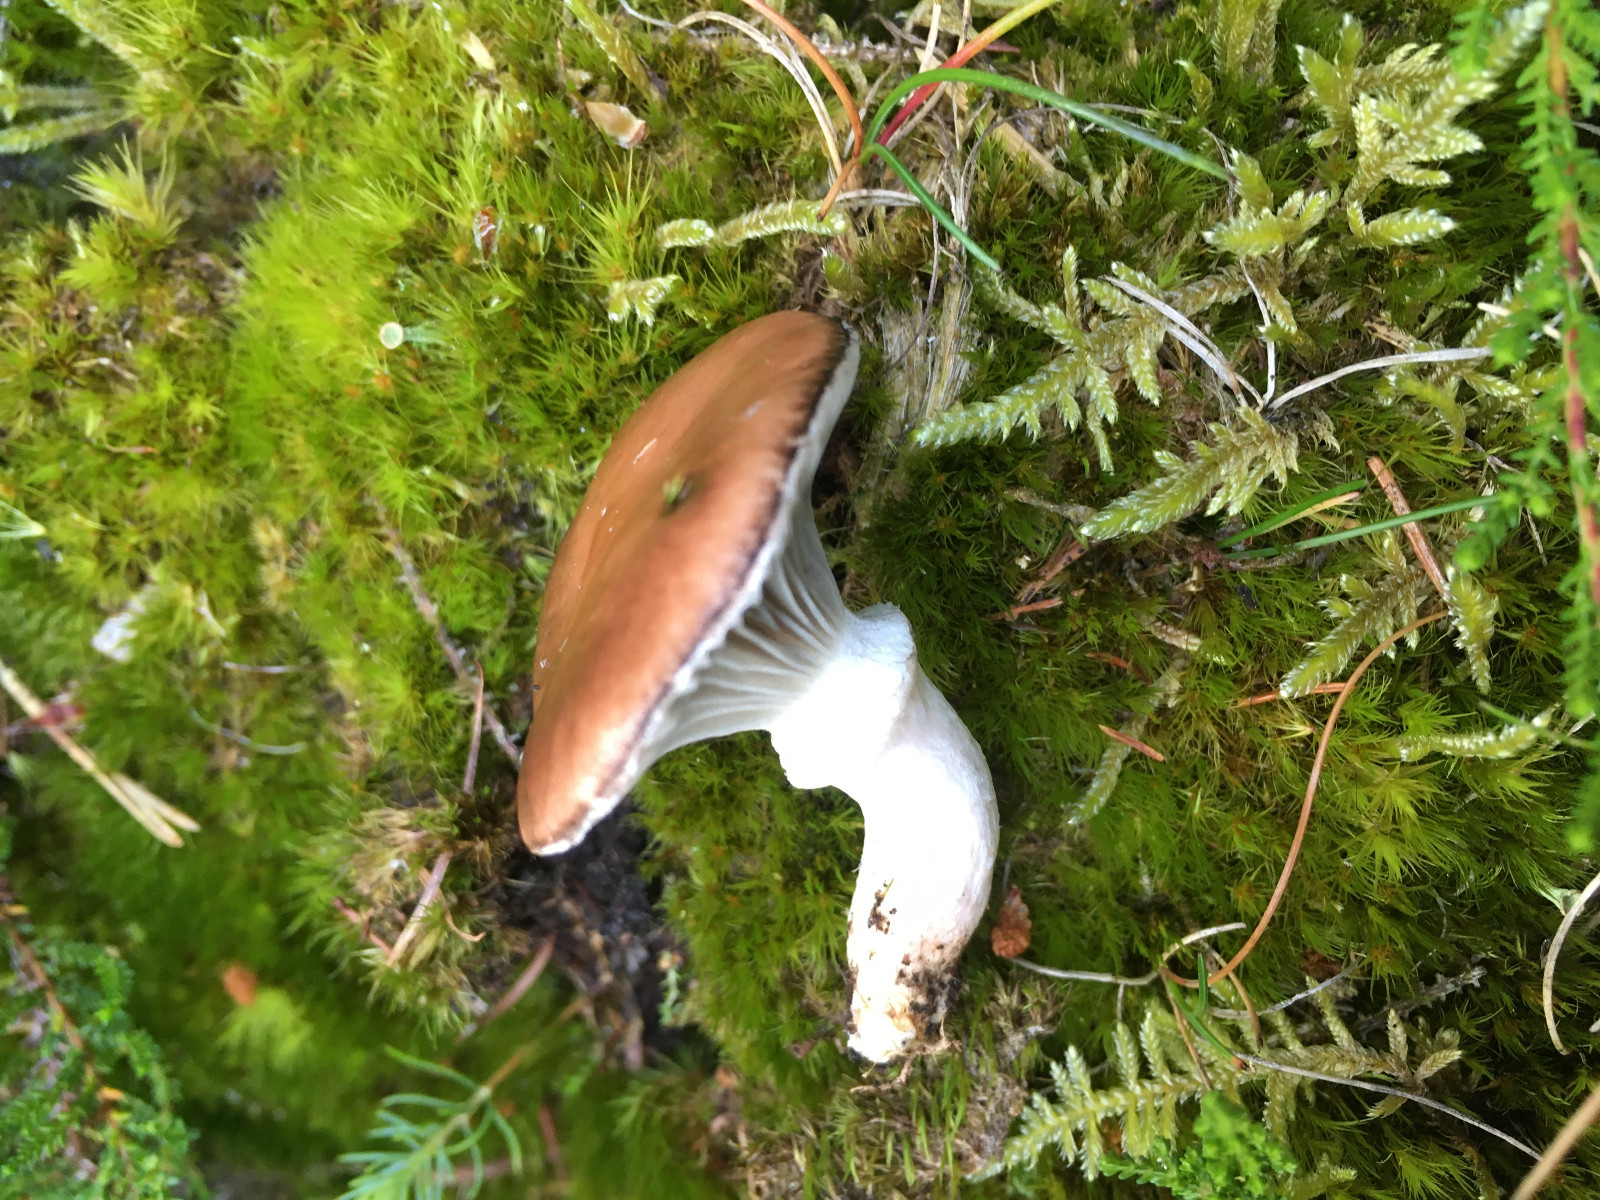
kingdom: Fungi
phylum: Basidiomycota
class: Agaricomycetes
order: Boletales
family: Gomphidiaceae
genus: Gomphidius
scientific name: Gomphidius glutinosus
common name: grå slimslør
